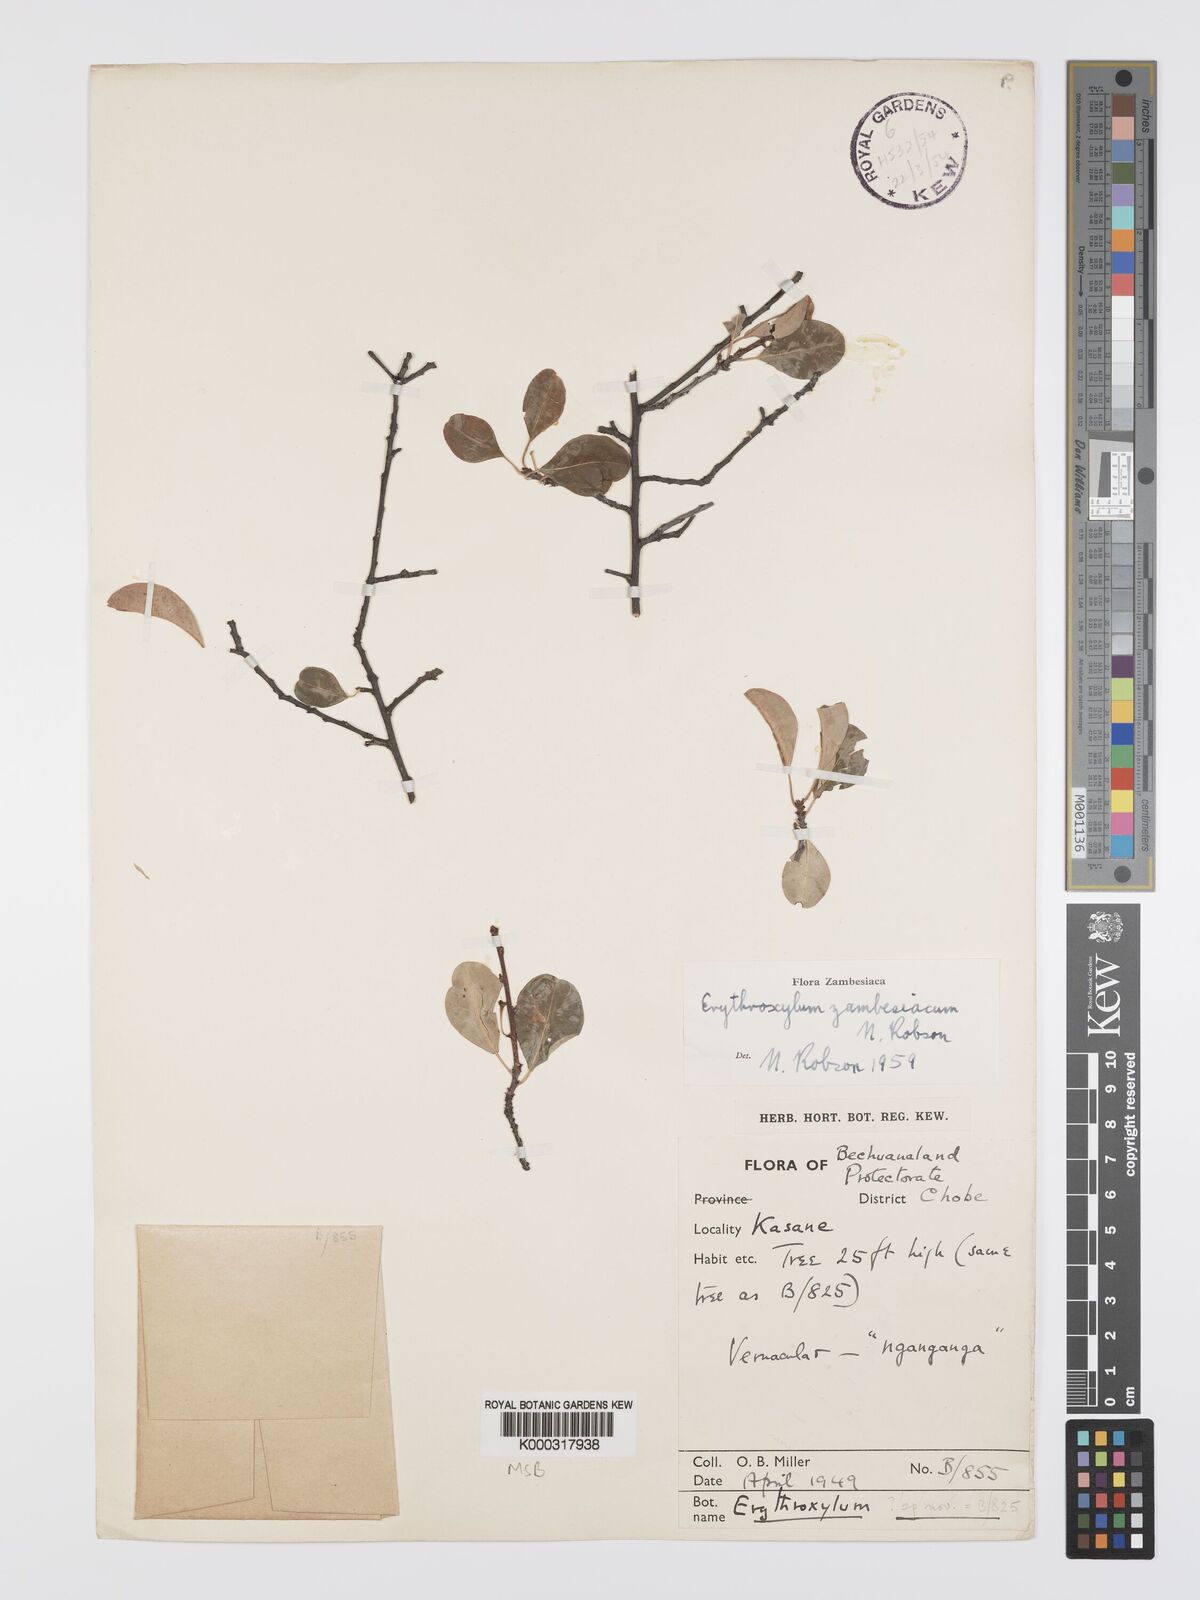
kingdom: Plantae
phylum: Tracheophyta
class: Magnoliopsida
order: Malpighiales
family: Erythroxylaceae
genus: Erythroxylum
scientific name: Erythroxylum zambesiacum
